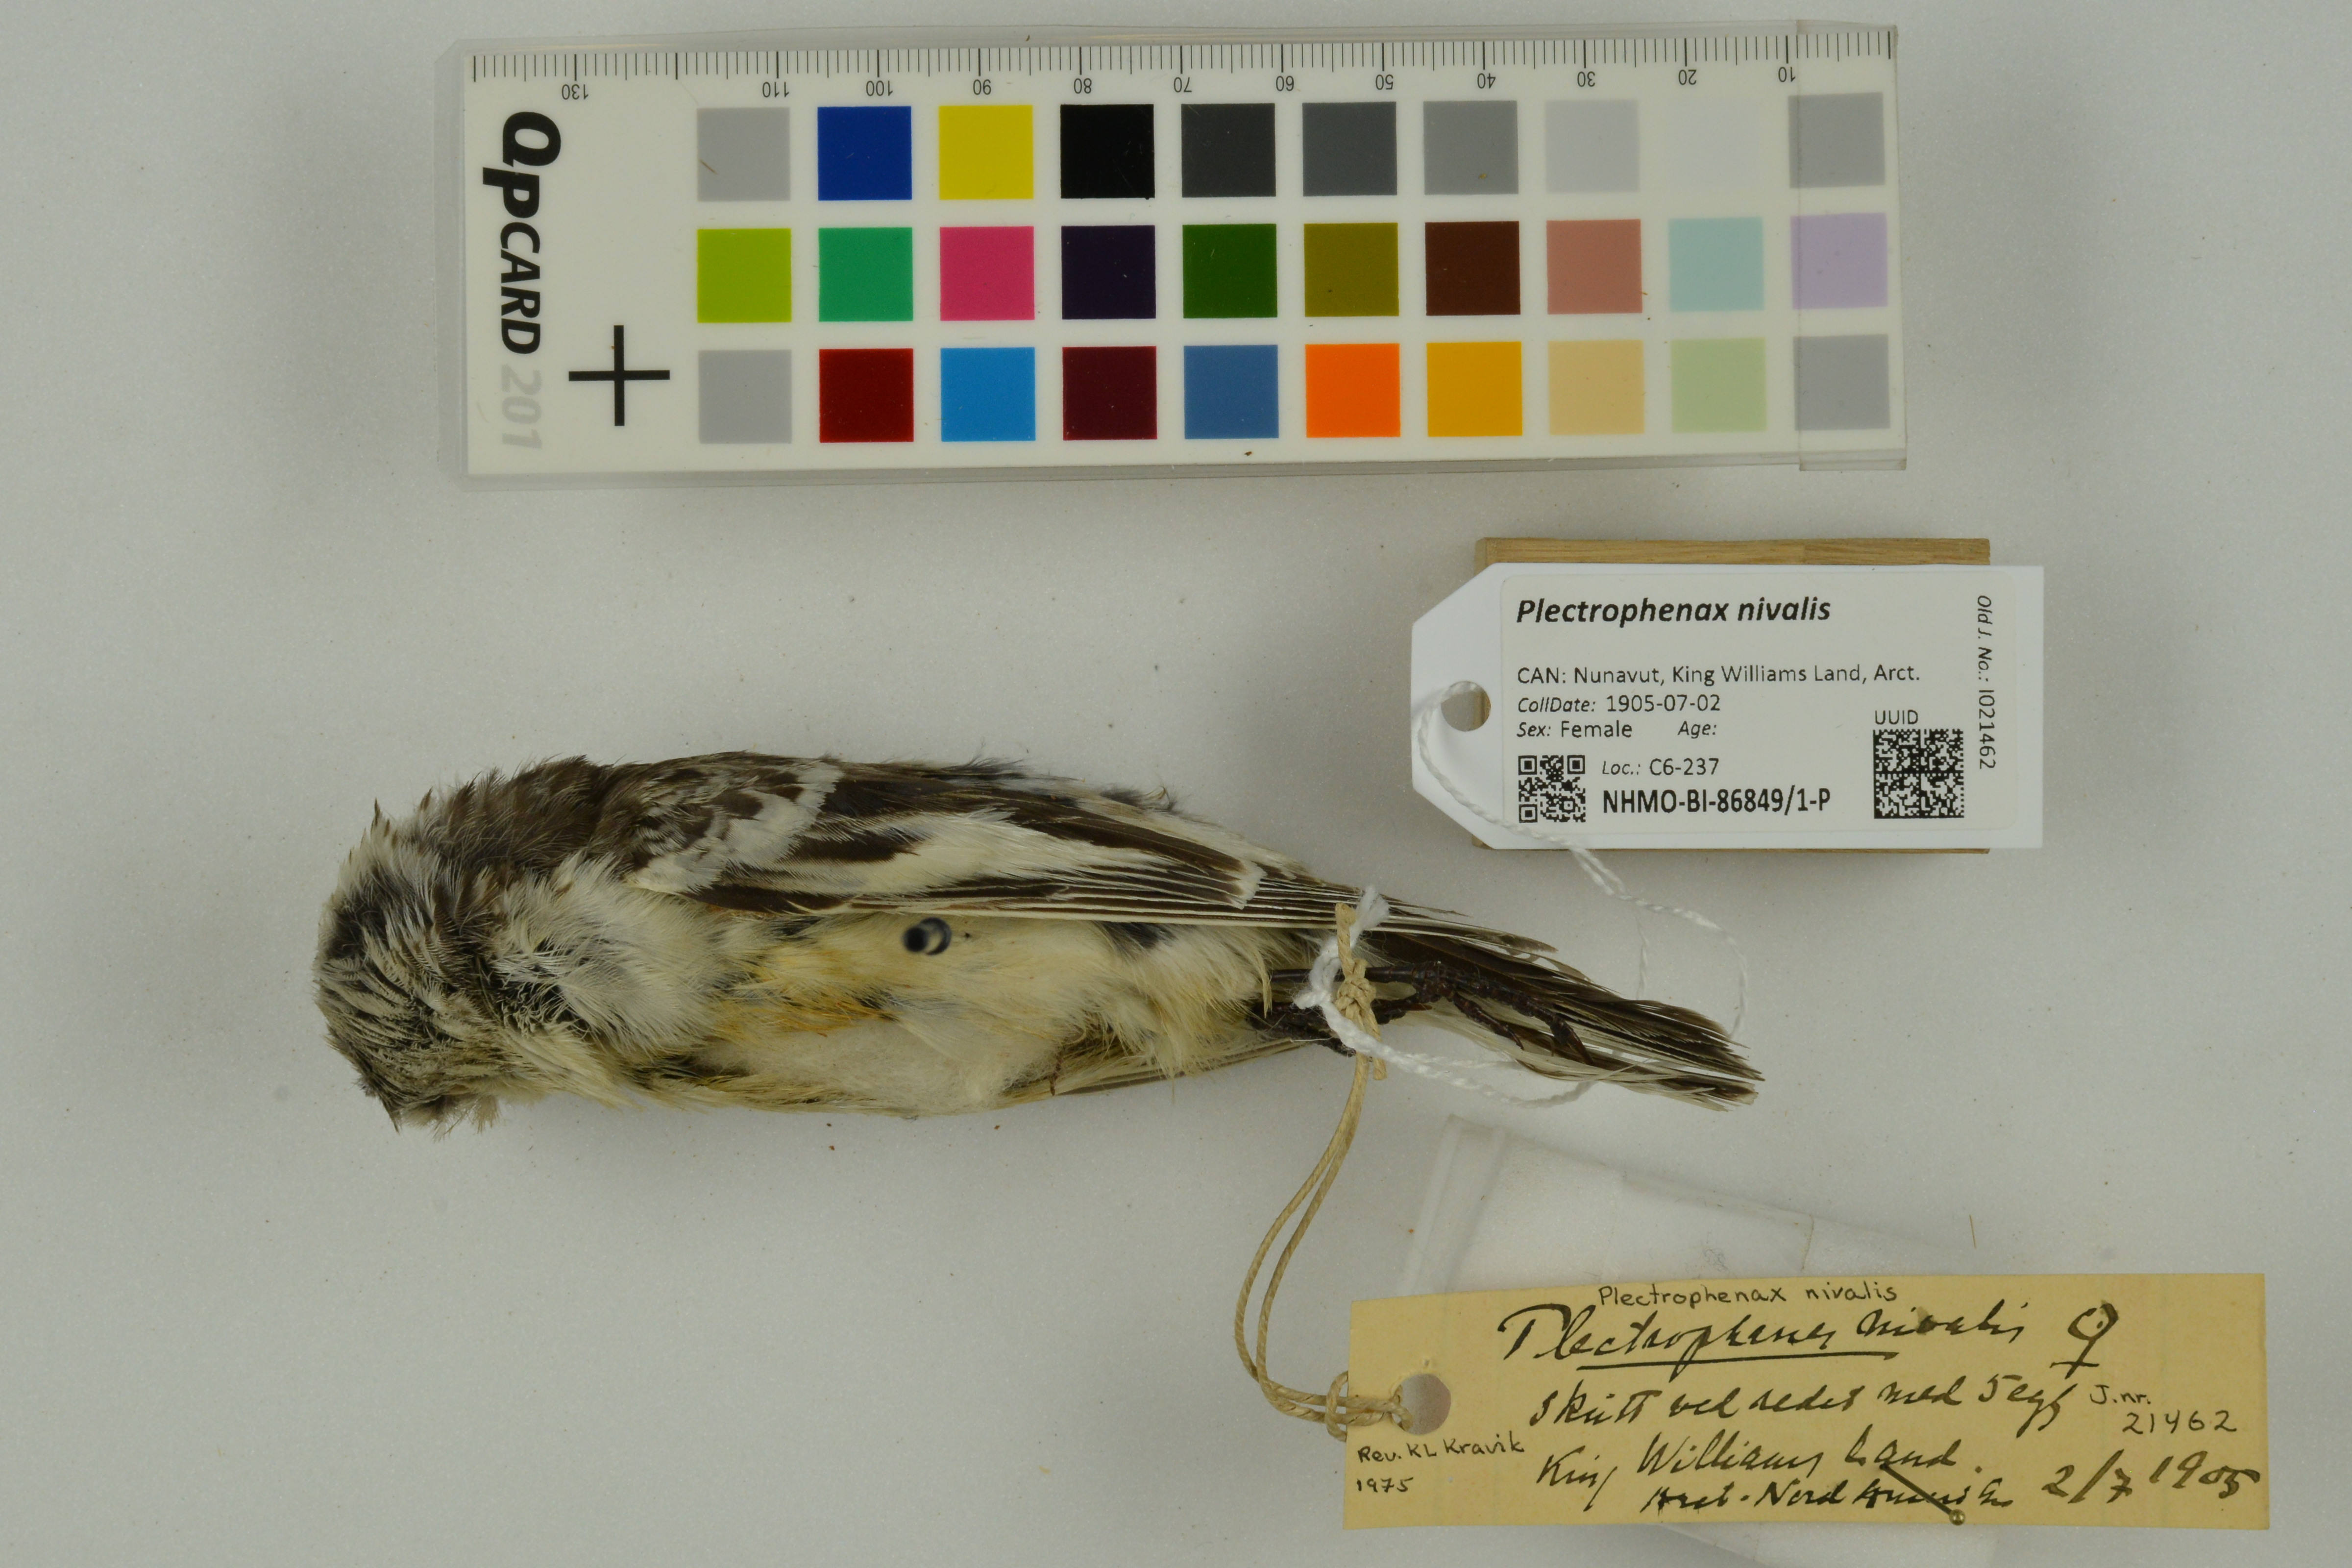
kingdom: Animalia
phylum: Chordata
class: Aves
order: Passeriformes
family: Calcariidae
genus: Plectrophenax
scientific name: Plectrophenax nivalis
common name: Snow bunting
